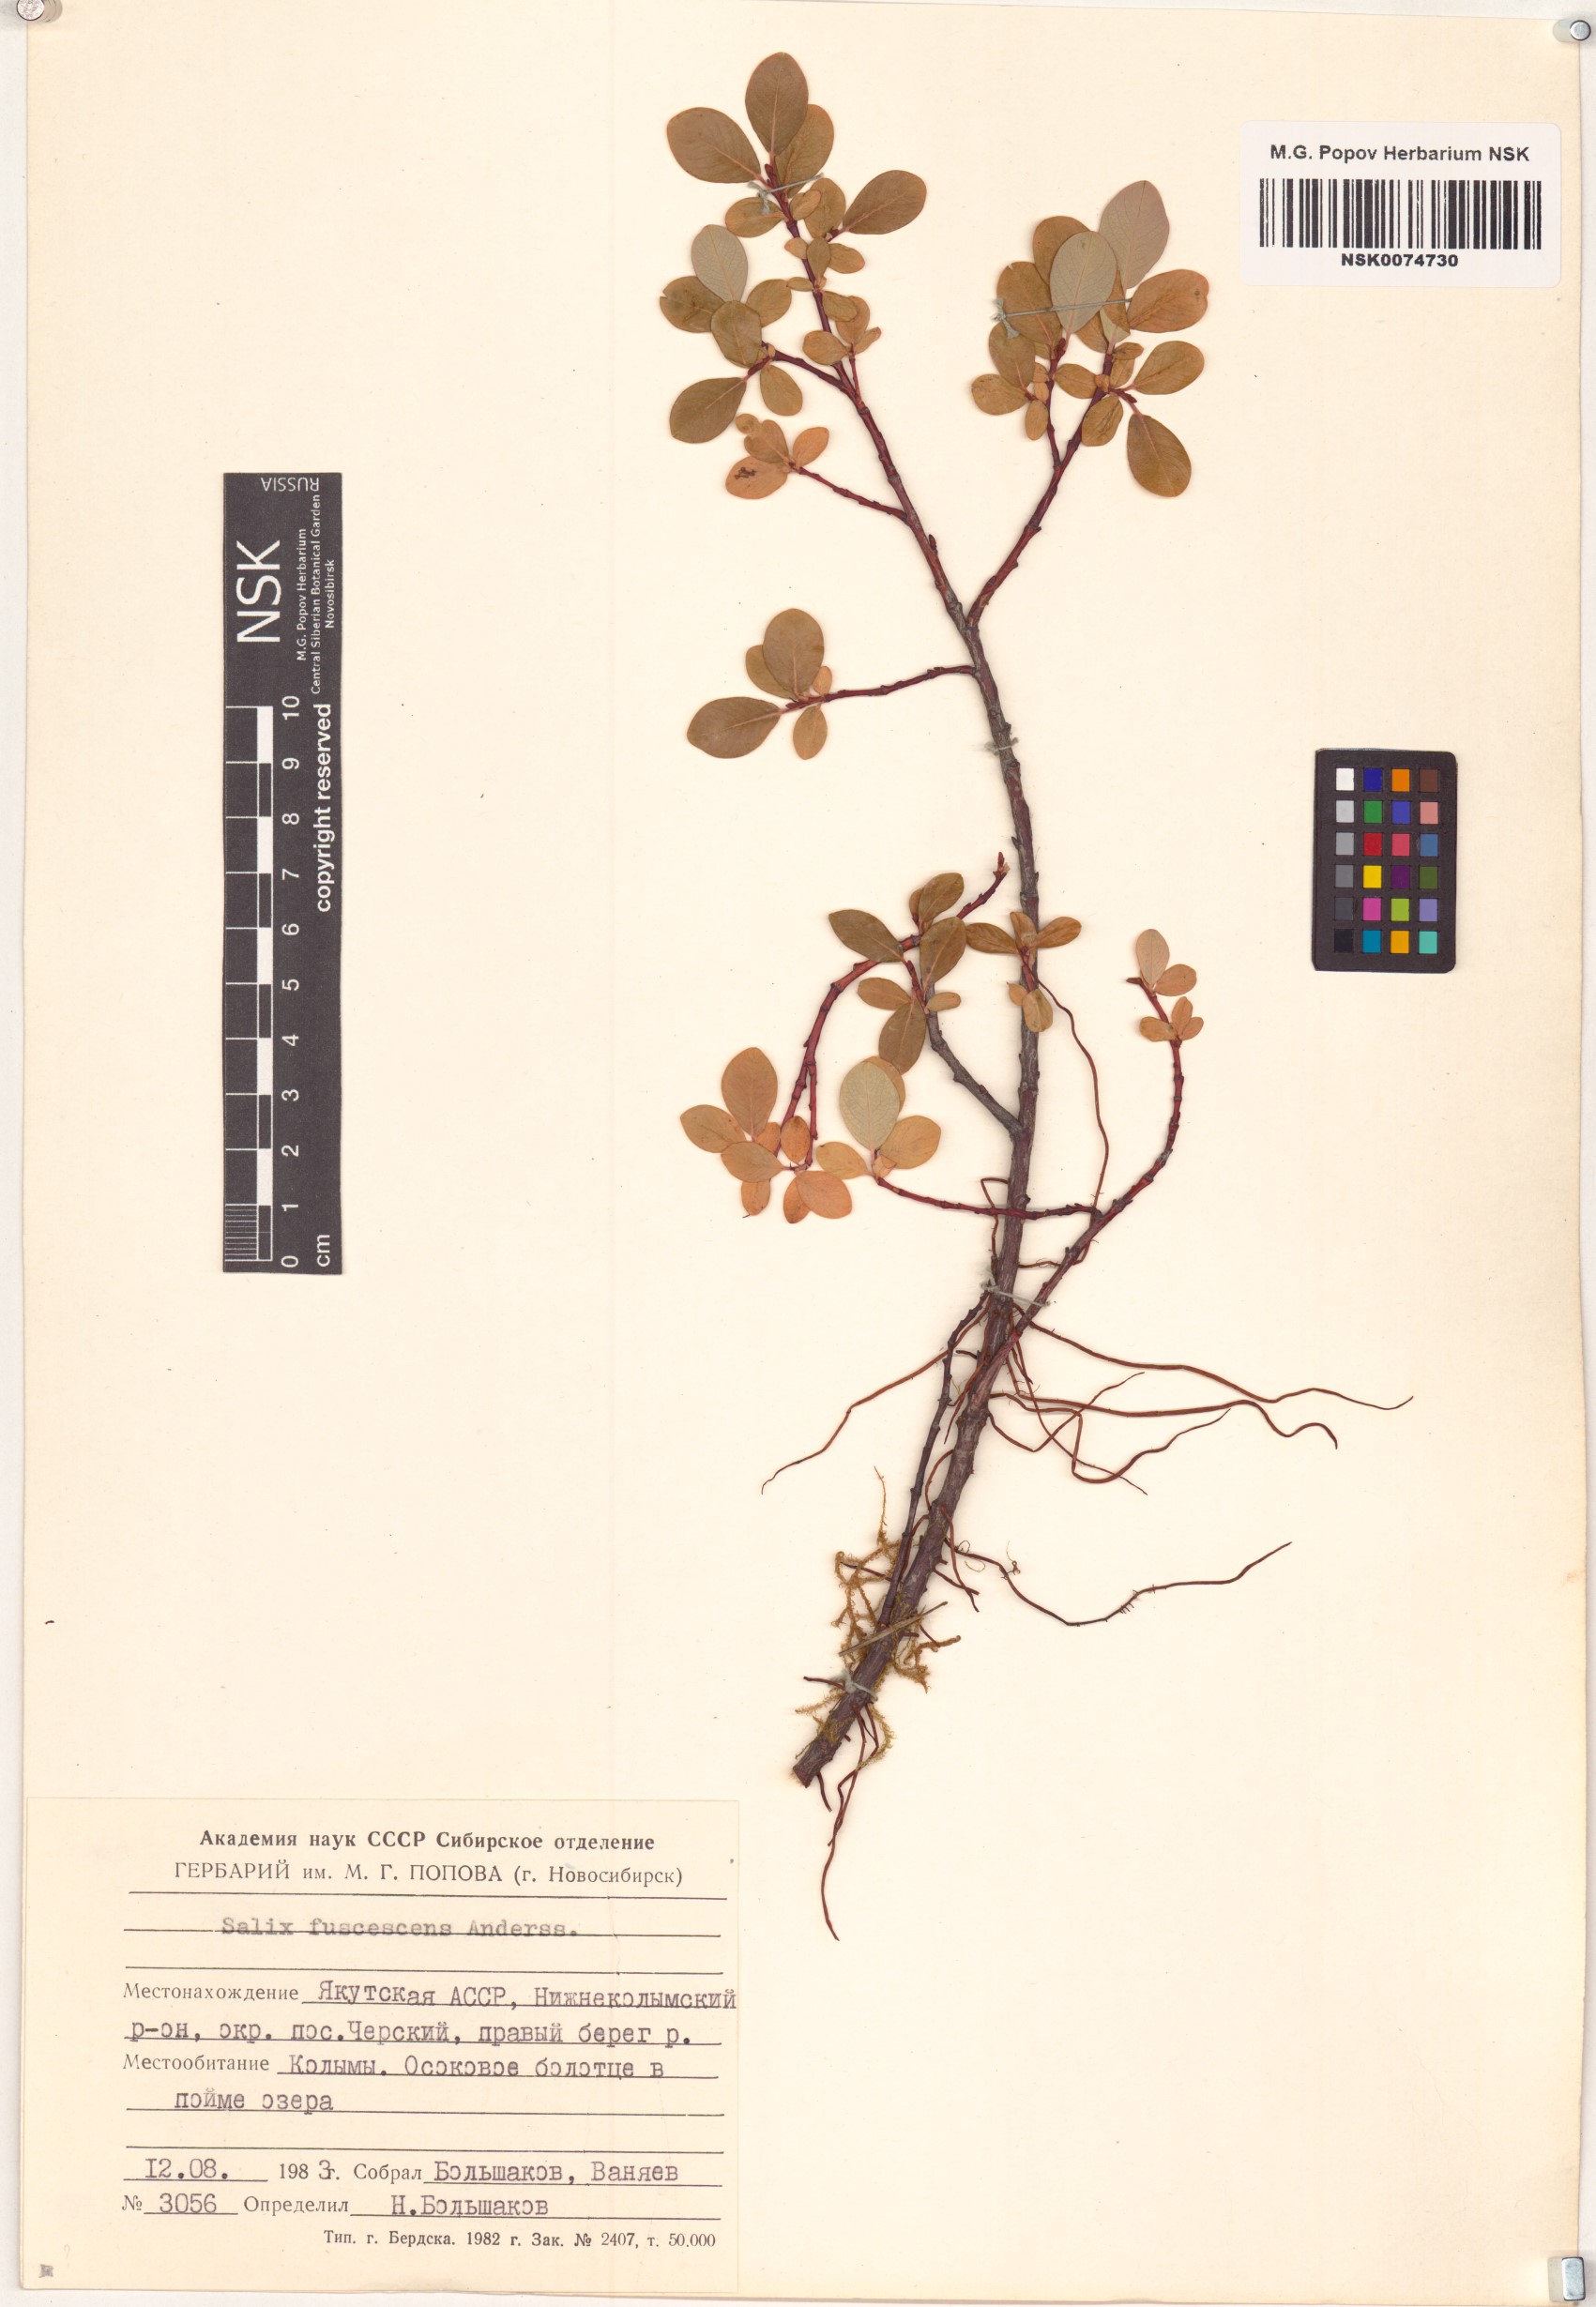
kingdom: Plantae
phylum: Tracheophyta
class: Magnoliopsida
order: Malpighiales
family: Salicaceae
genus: Salix
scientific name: Salix fuscescens
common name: Brownish willow
